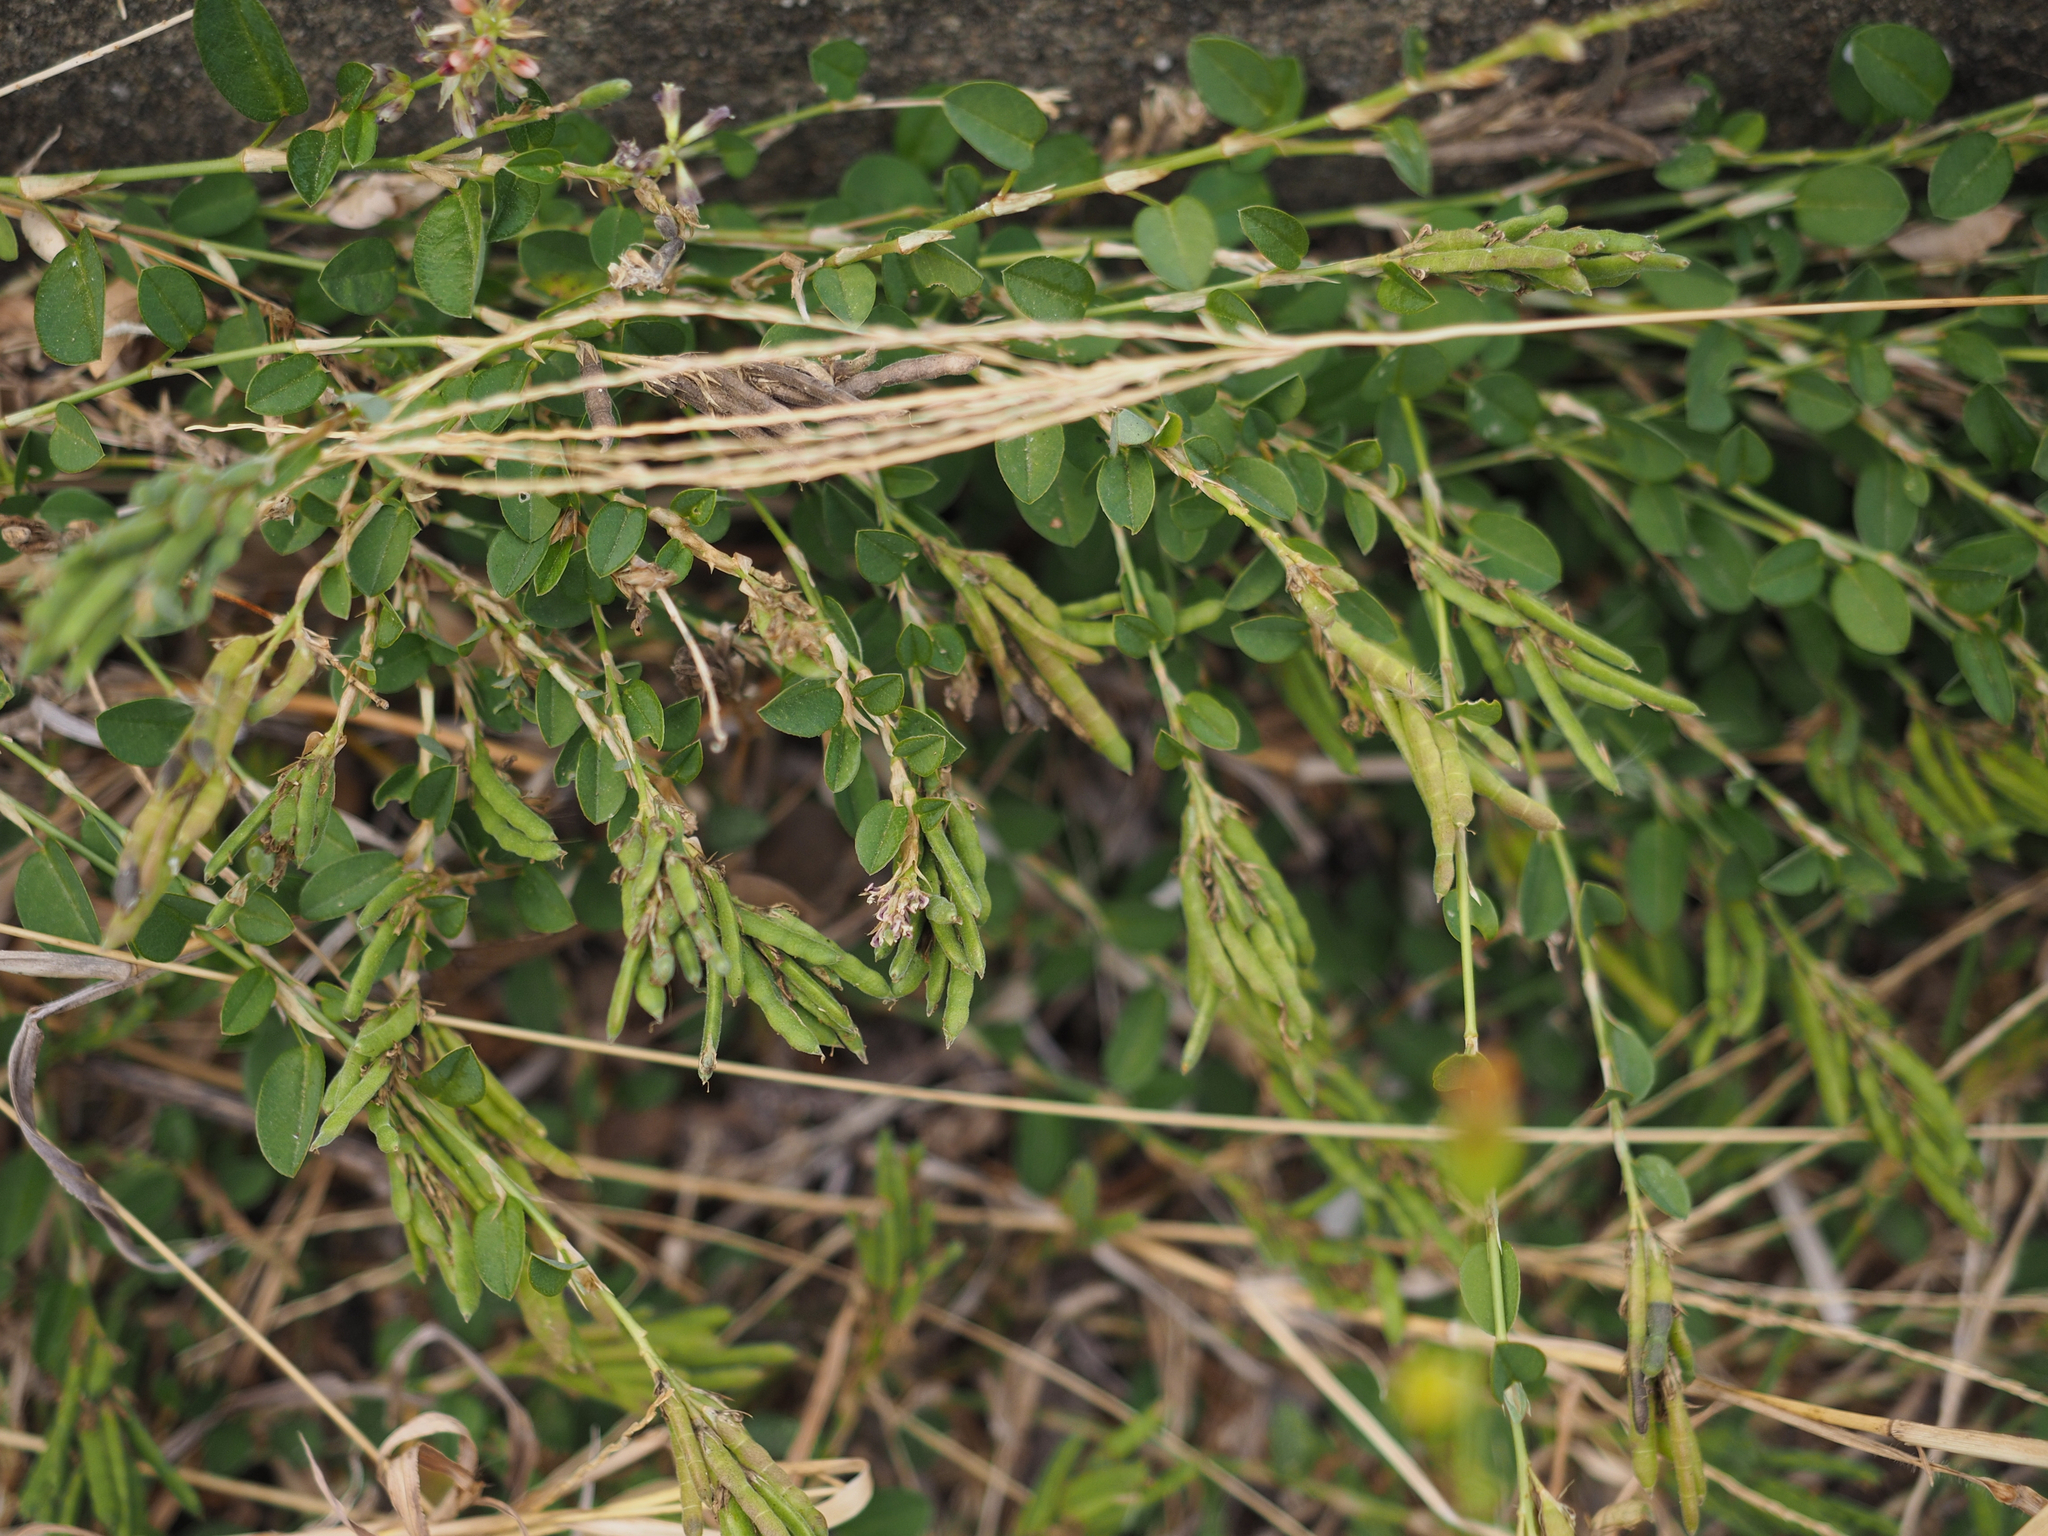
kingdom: Plantae
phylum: Tracheophyta
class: Magnoliopsida
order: Fabales
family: Fabaceae
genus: Alysicarpus
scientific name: Alysicarpus vaginalis
